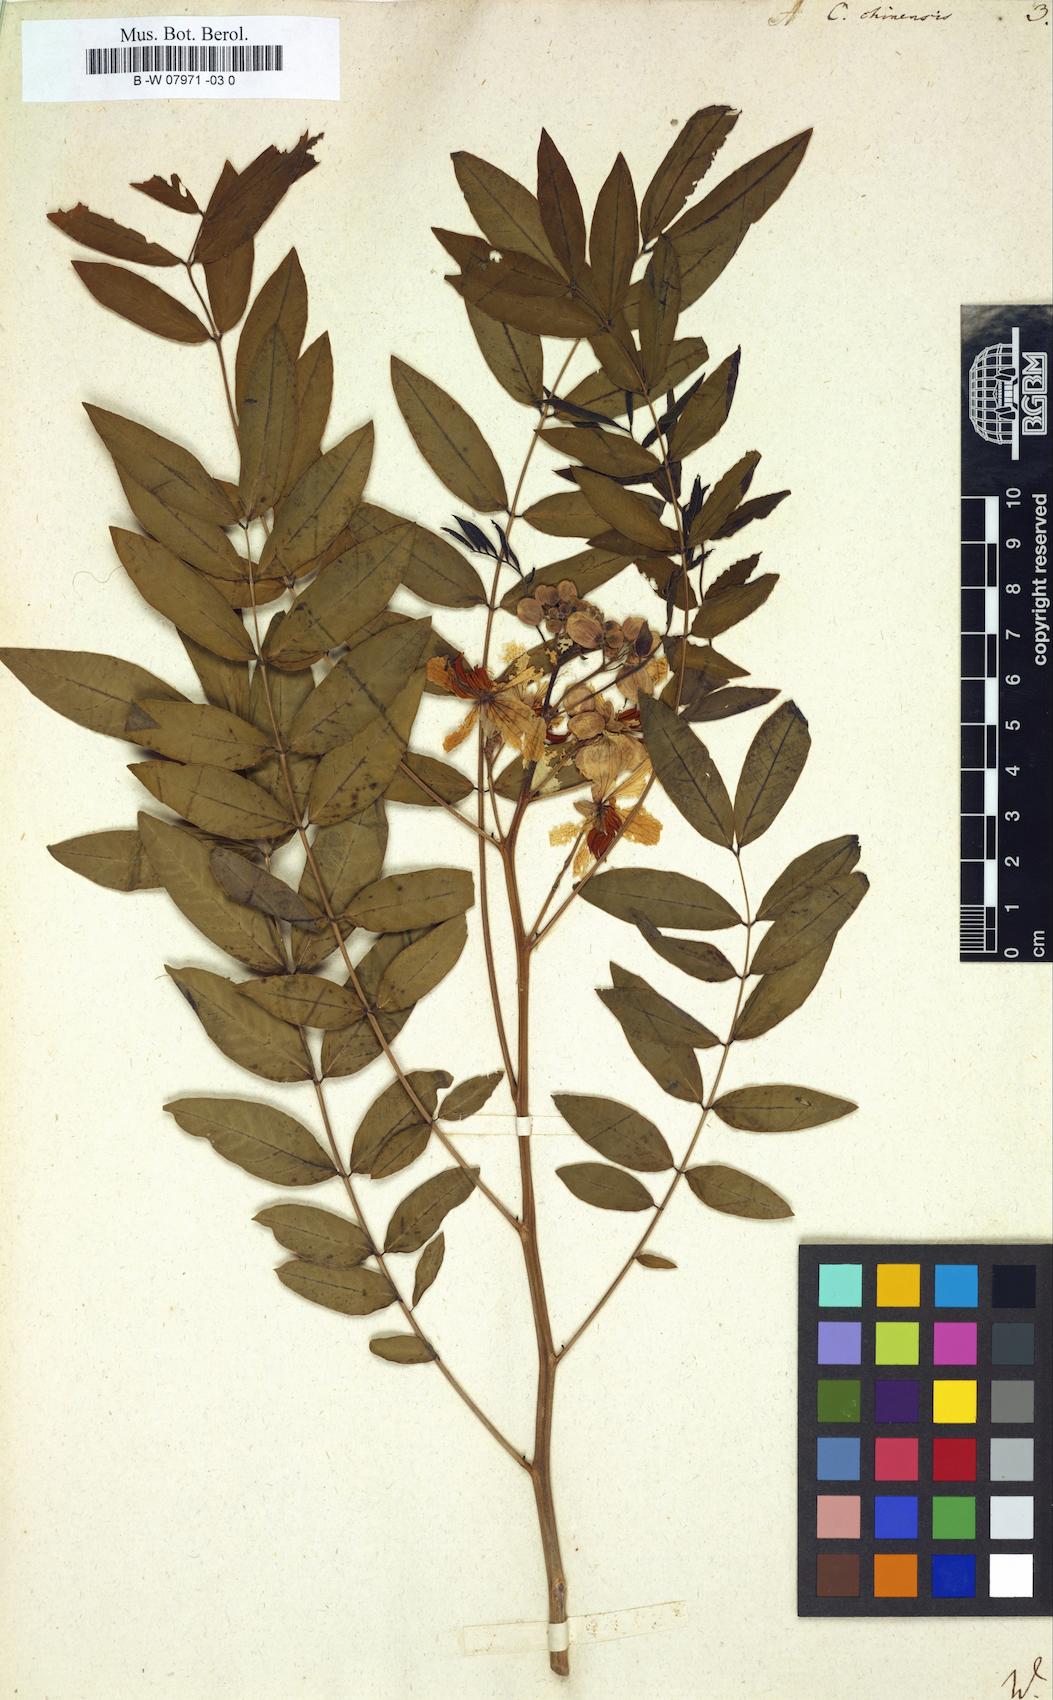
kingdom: Plantae
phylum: Tracheophyta
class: Magnoliopsida
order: Fabales
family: Fabaceae
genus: Senna
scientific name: Senna
